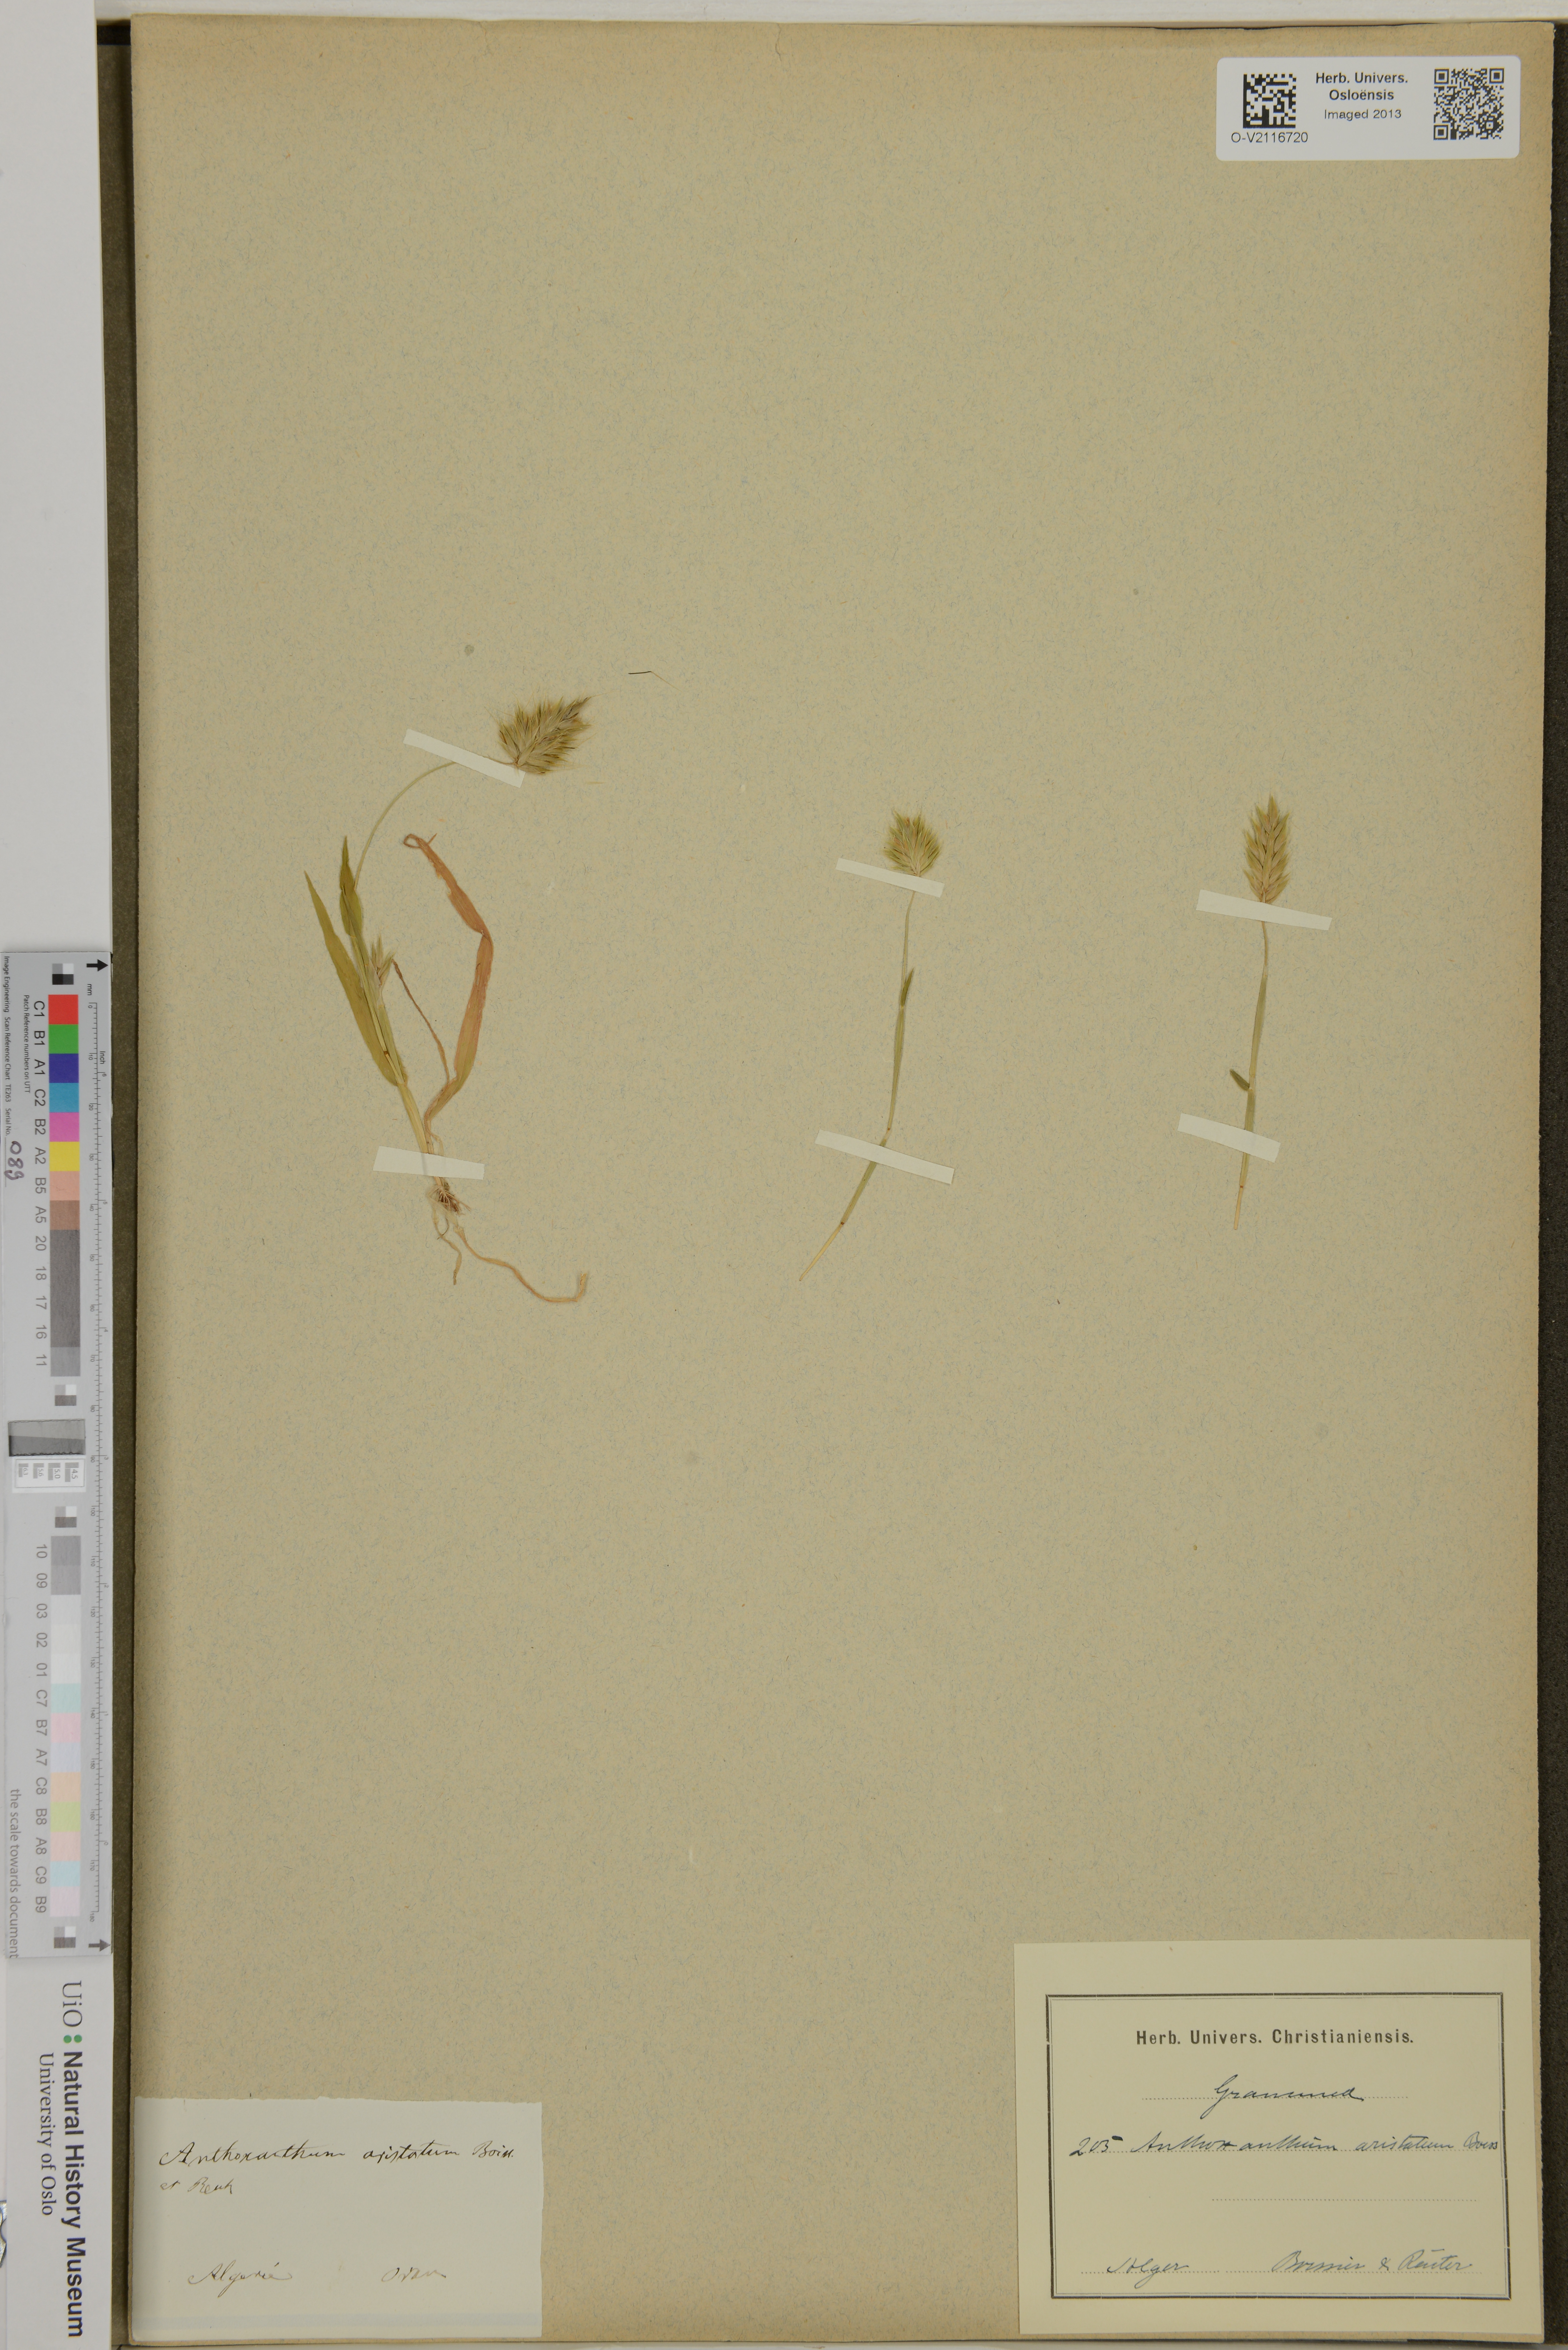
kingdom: Plantae
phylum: Tracheophyta
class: Liliopsida
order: Poales
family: Poaceae
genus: Anthoxanthum
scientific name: Anthoxanthum aristatum
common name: Annual vernal-grass
